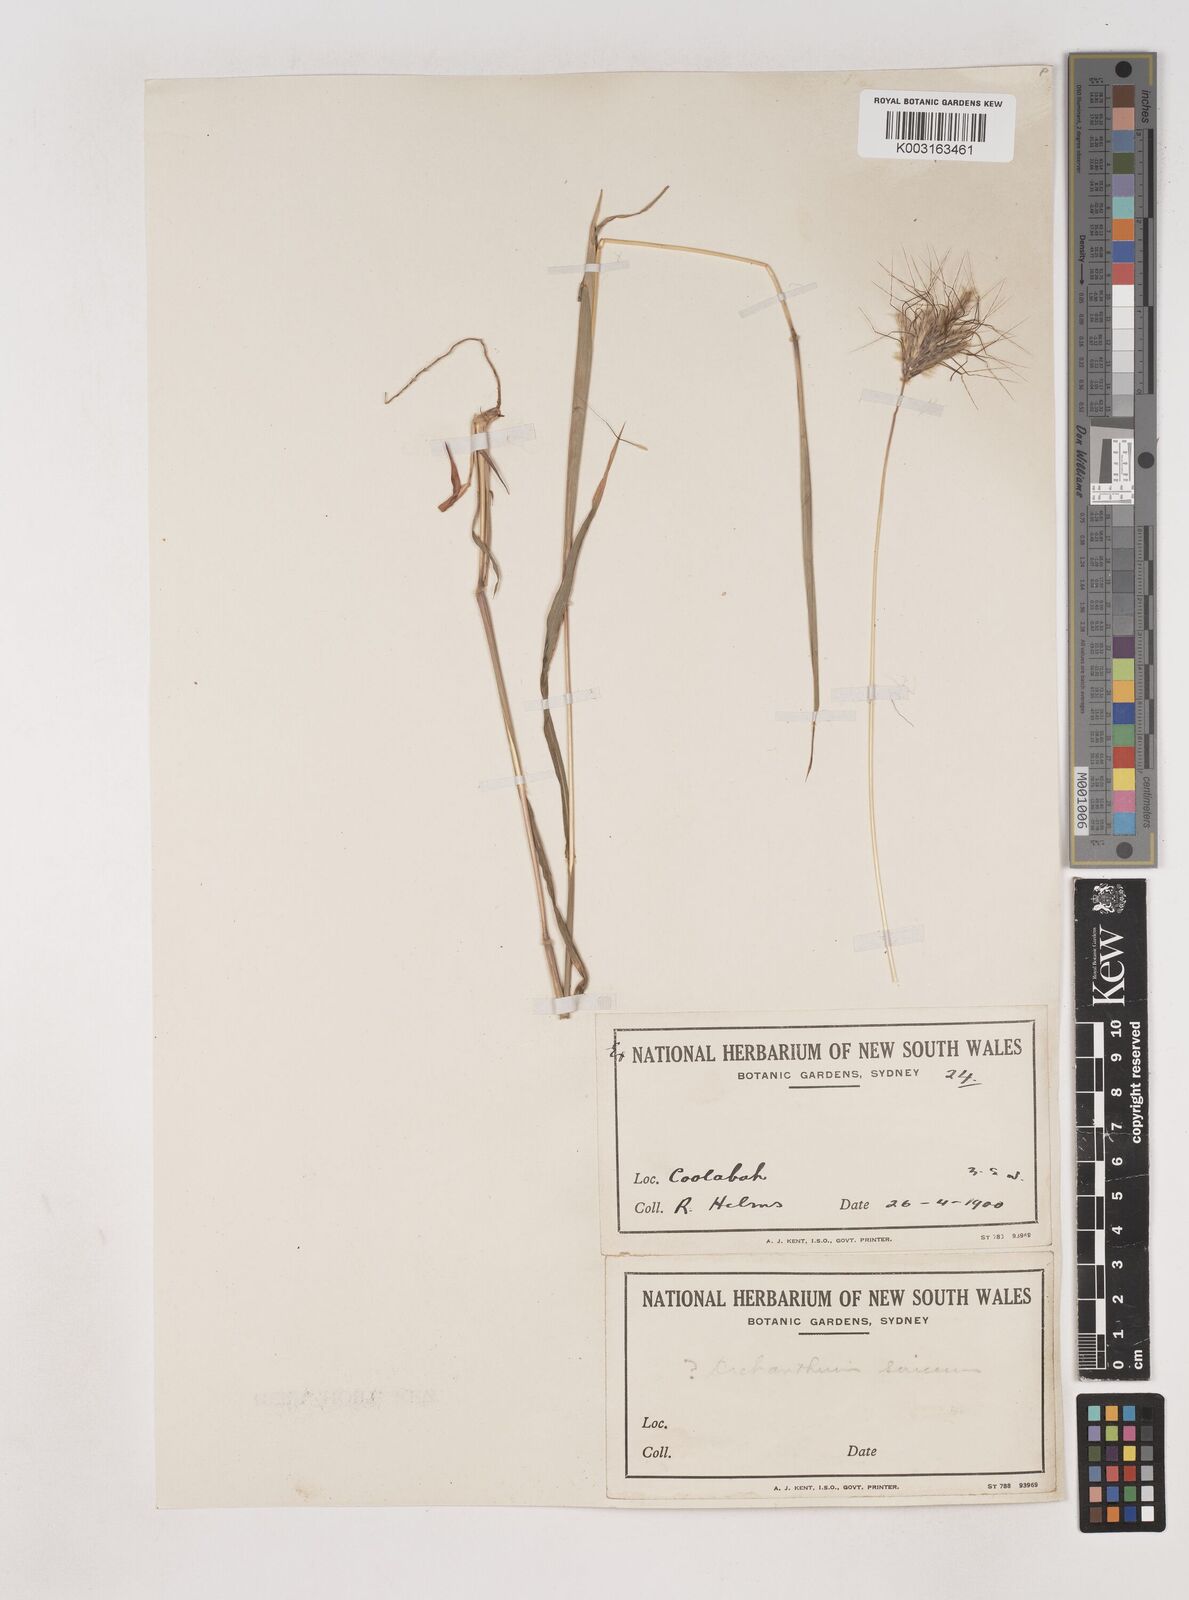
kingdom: Plantae
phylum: Tracheophyta
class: Liliopsida
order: Poales
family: Poaceae
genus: Dichanthium
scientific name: Dichanthium sericeum
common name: Silky bluestem
